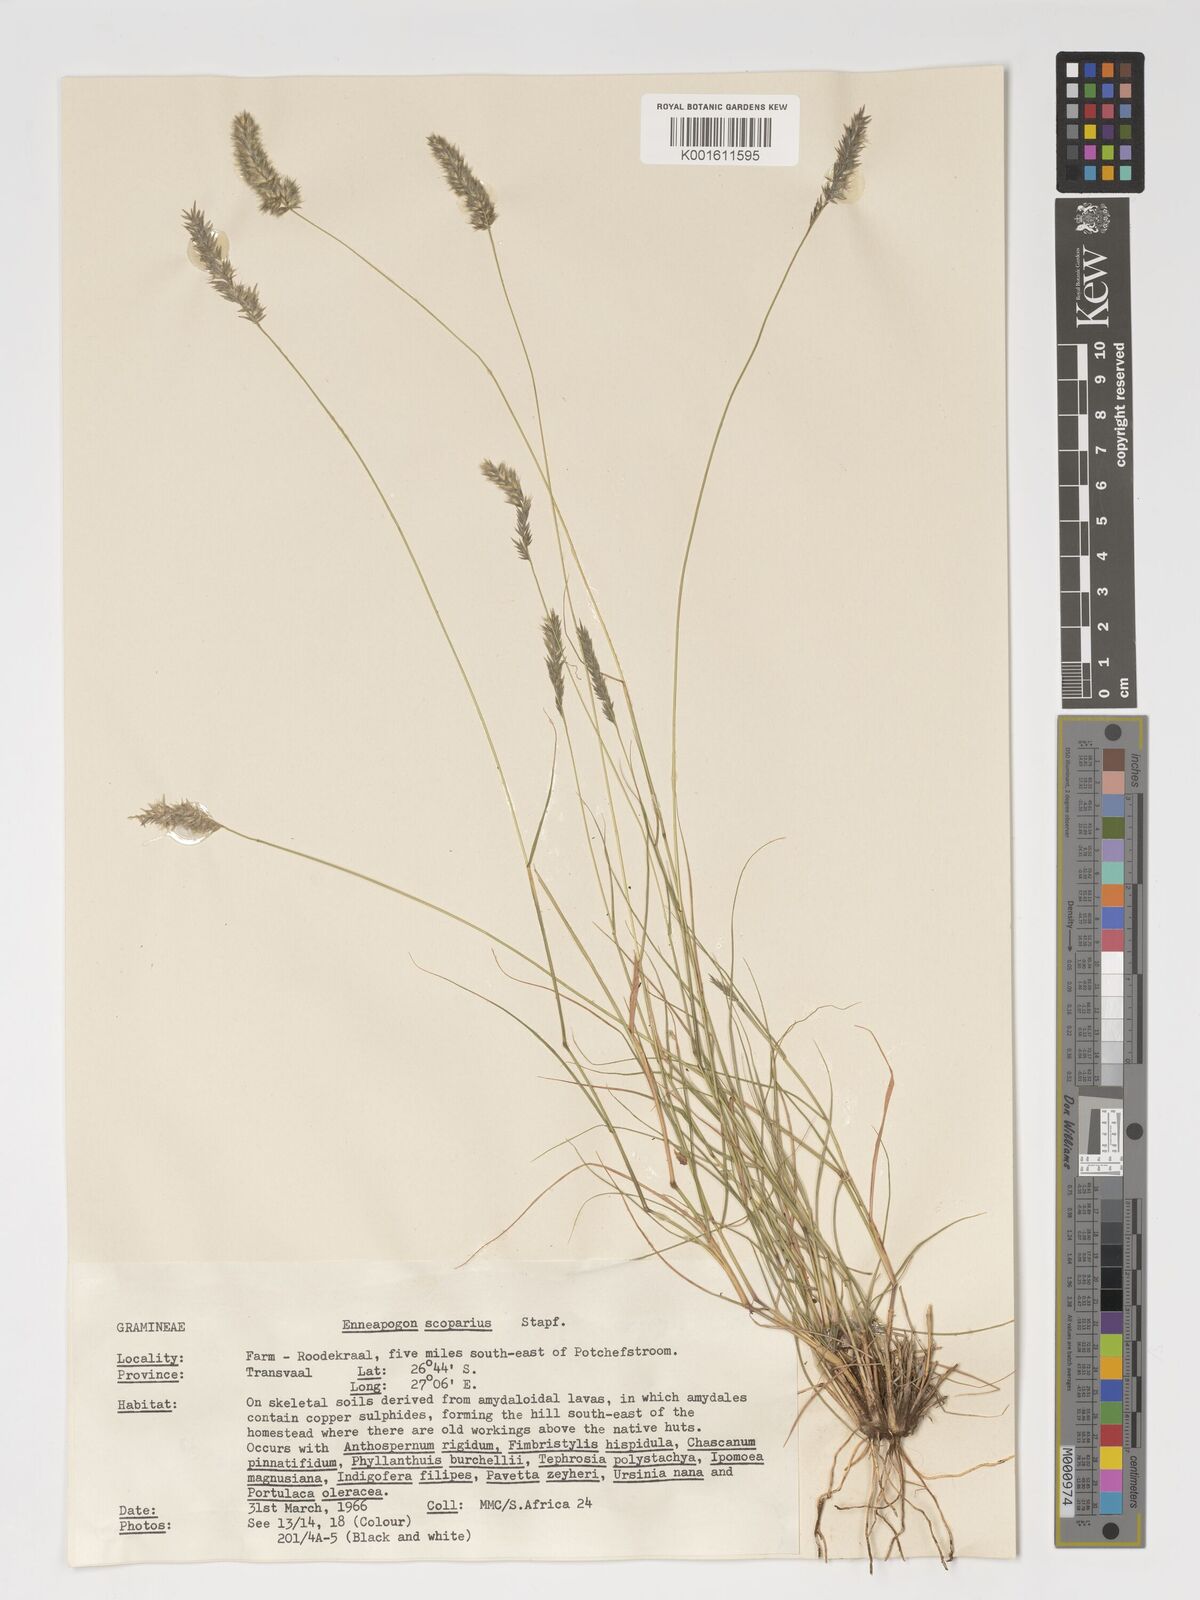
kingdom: Plantae
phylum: Tracheophyta
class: Liliopsida
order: Poales
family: Poaceae
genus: Enneapogon
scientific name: Enneapogon scoparius
